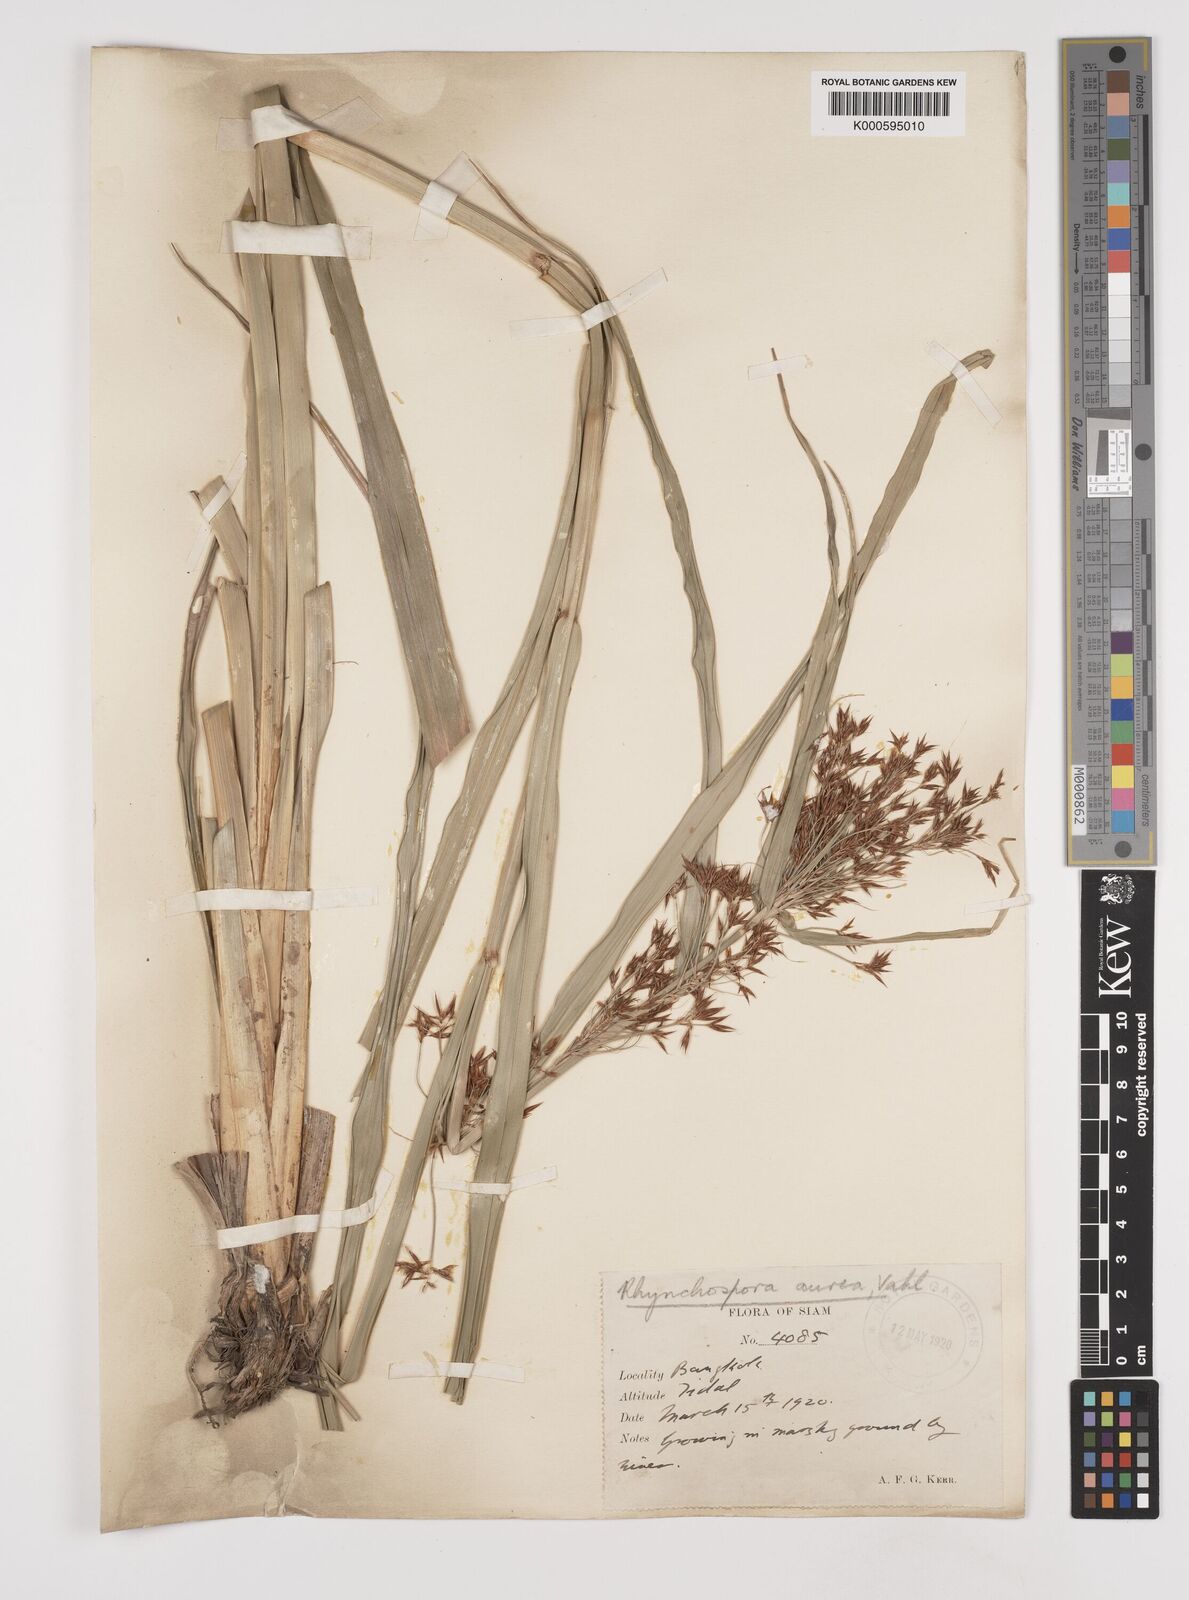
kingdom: Plantae
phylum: Tracheophyta
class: Liliopsida
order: Poales
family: Cyperaceae
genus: Rhynchospora
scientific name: Rhynchospora corymbosa
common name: Golden beak sedge
